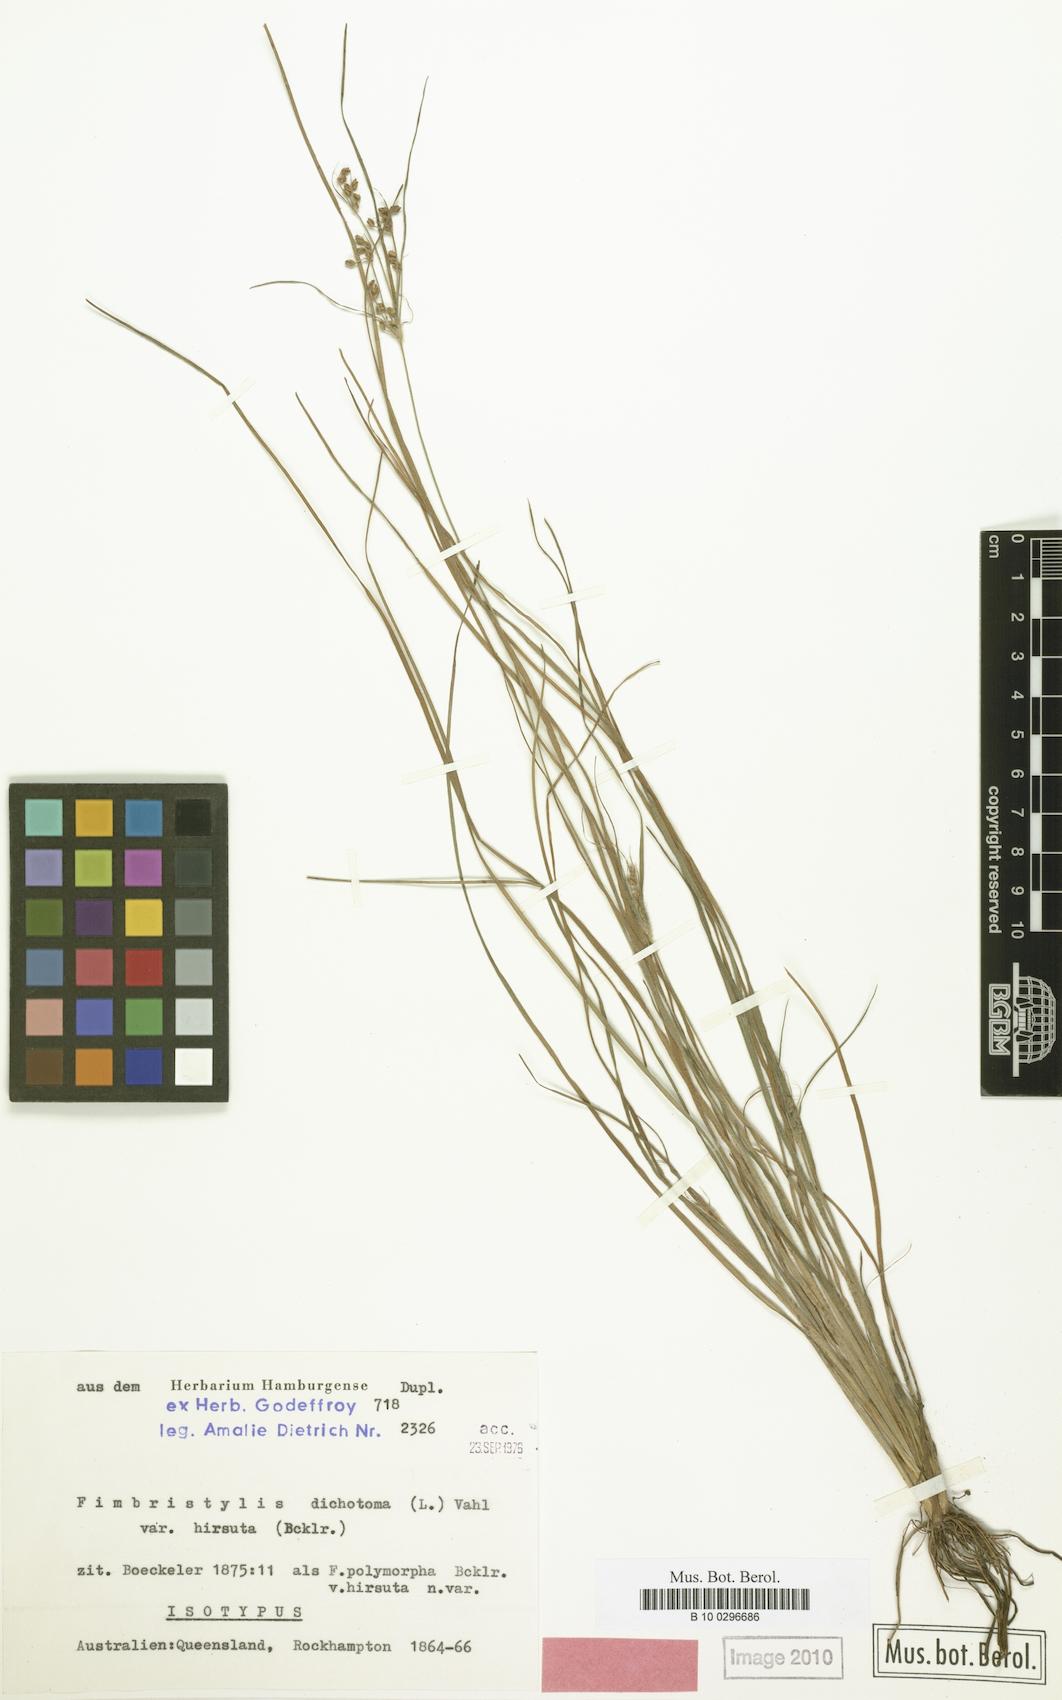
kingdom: Plantae
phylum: Tracheophyta
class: Liliopsida
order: Poales
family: Cyperaceae
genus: Fimbristylis
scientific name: Fimbristylis dichotoma
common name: Forked fimbry
